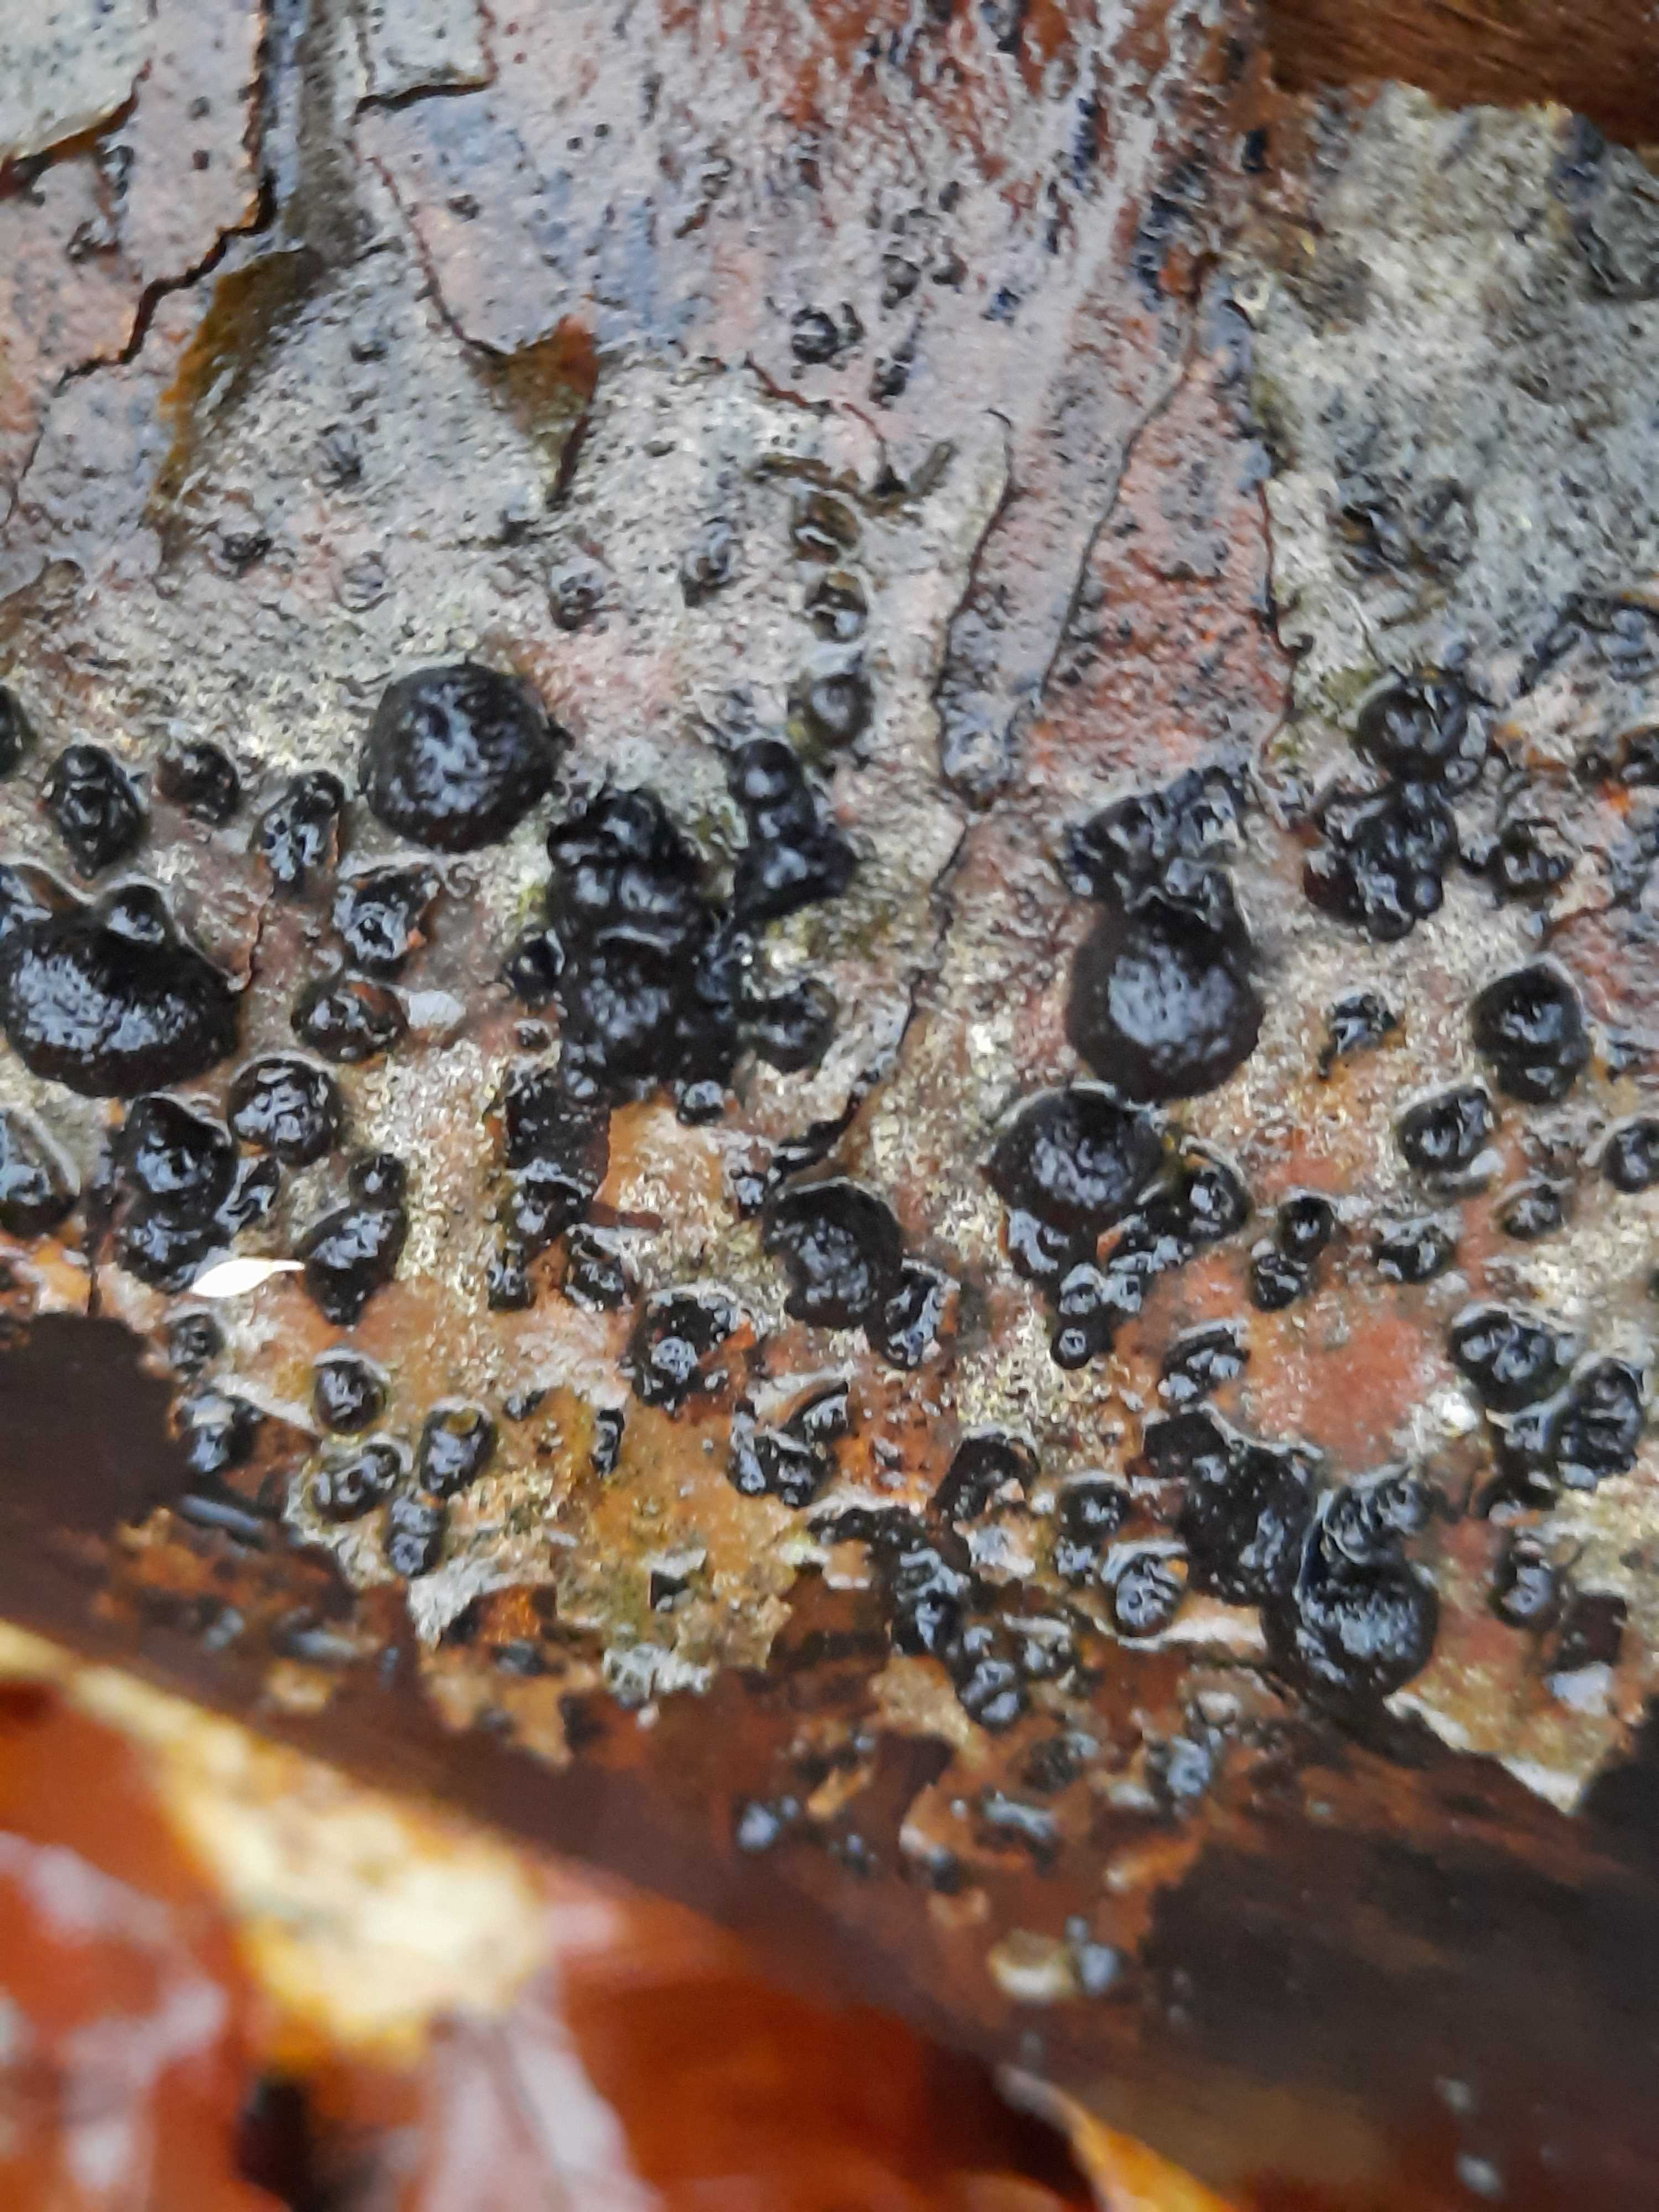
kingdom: Fungi
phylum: Ascomycota
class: Sordariomycetes
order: Xylariales
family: Hypoxylaceae
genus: Hypoxylon
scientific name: Hypoxylon fragiforme
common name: kuljordbær
